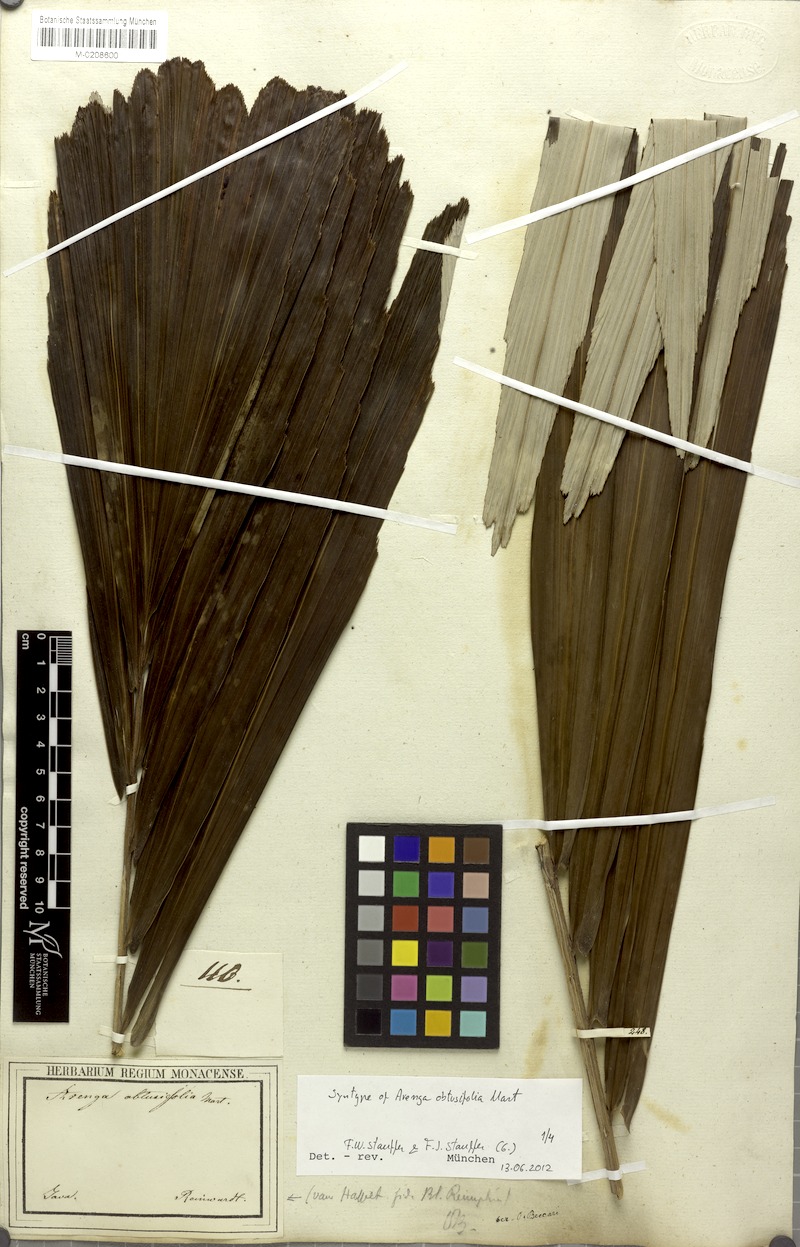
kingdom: Plantae
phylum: Tracheophyta
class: Liliopsida
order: Arecales
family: Arecaceae
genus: Arenga
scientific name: Arenga obtusifolia
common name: Lang kap
